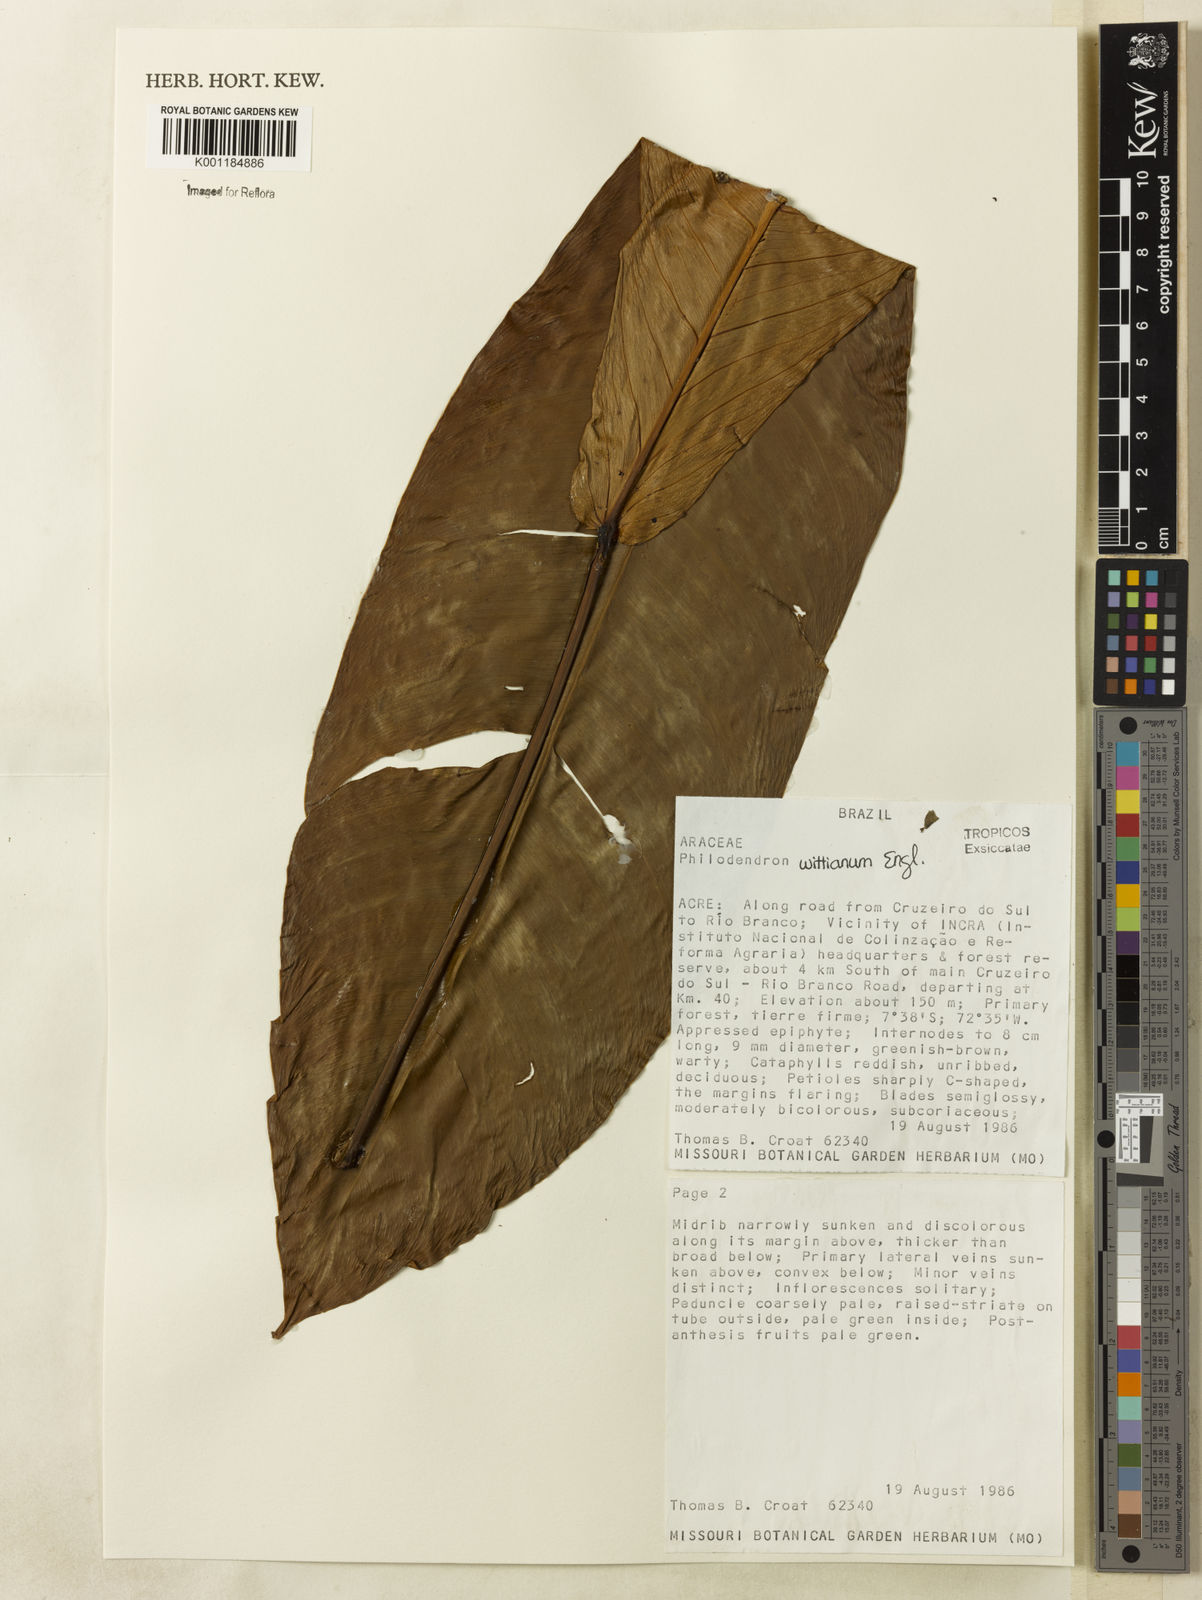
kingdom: Plantae
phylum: Tracheophyta
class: Liliopsida
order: Alismatales
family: Araceae
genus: Philodendron
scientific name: Philodendron wittianum
